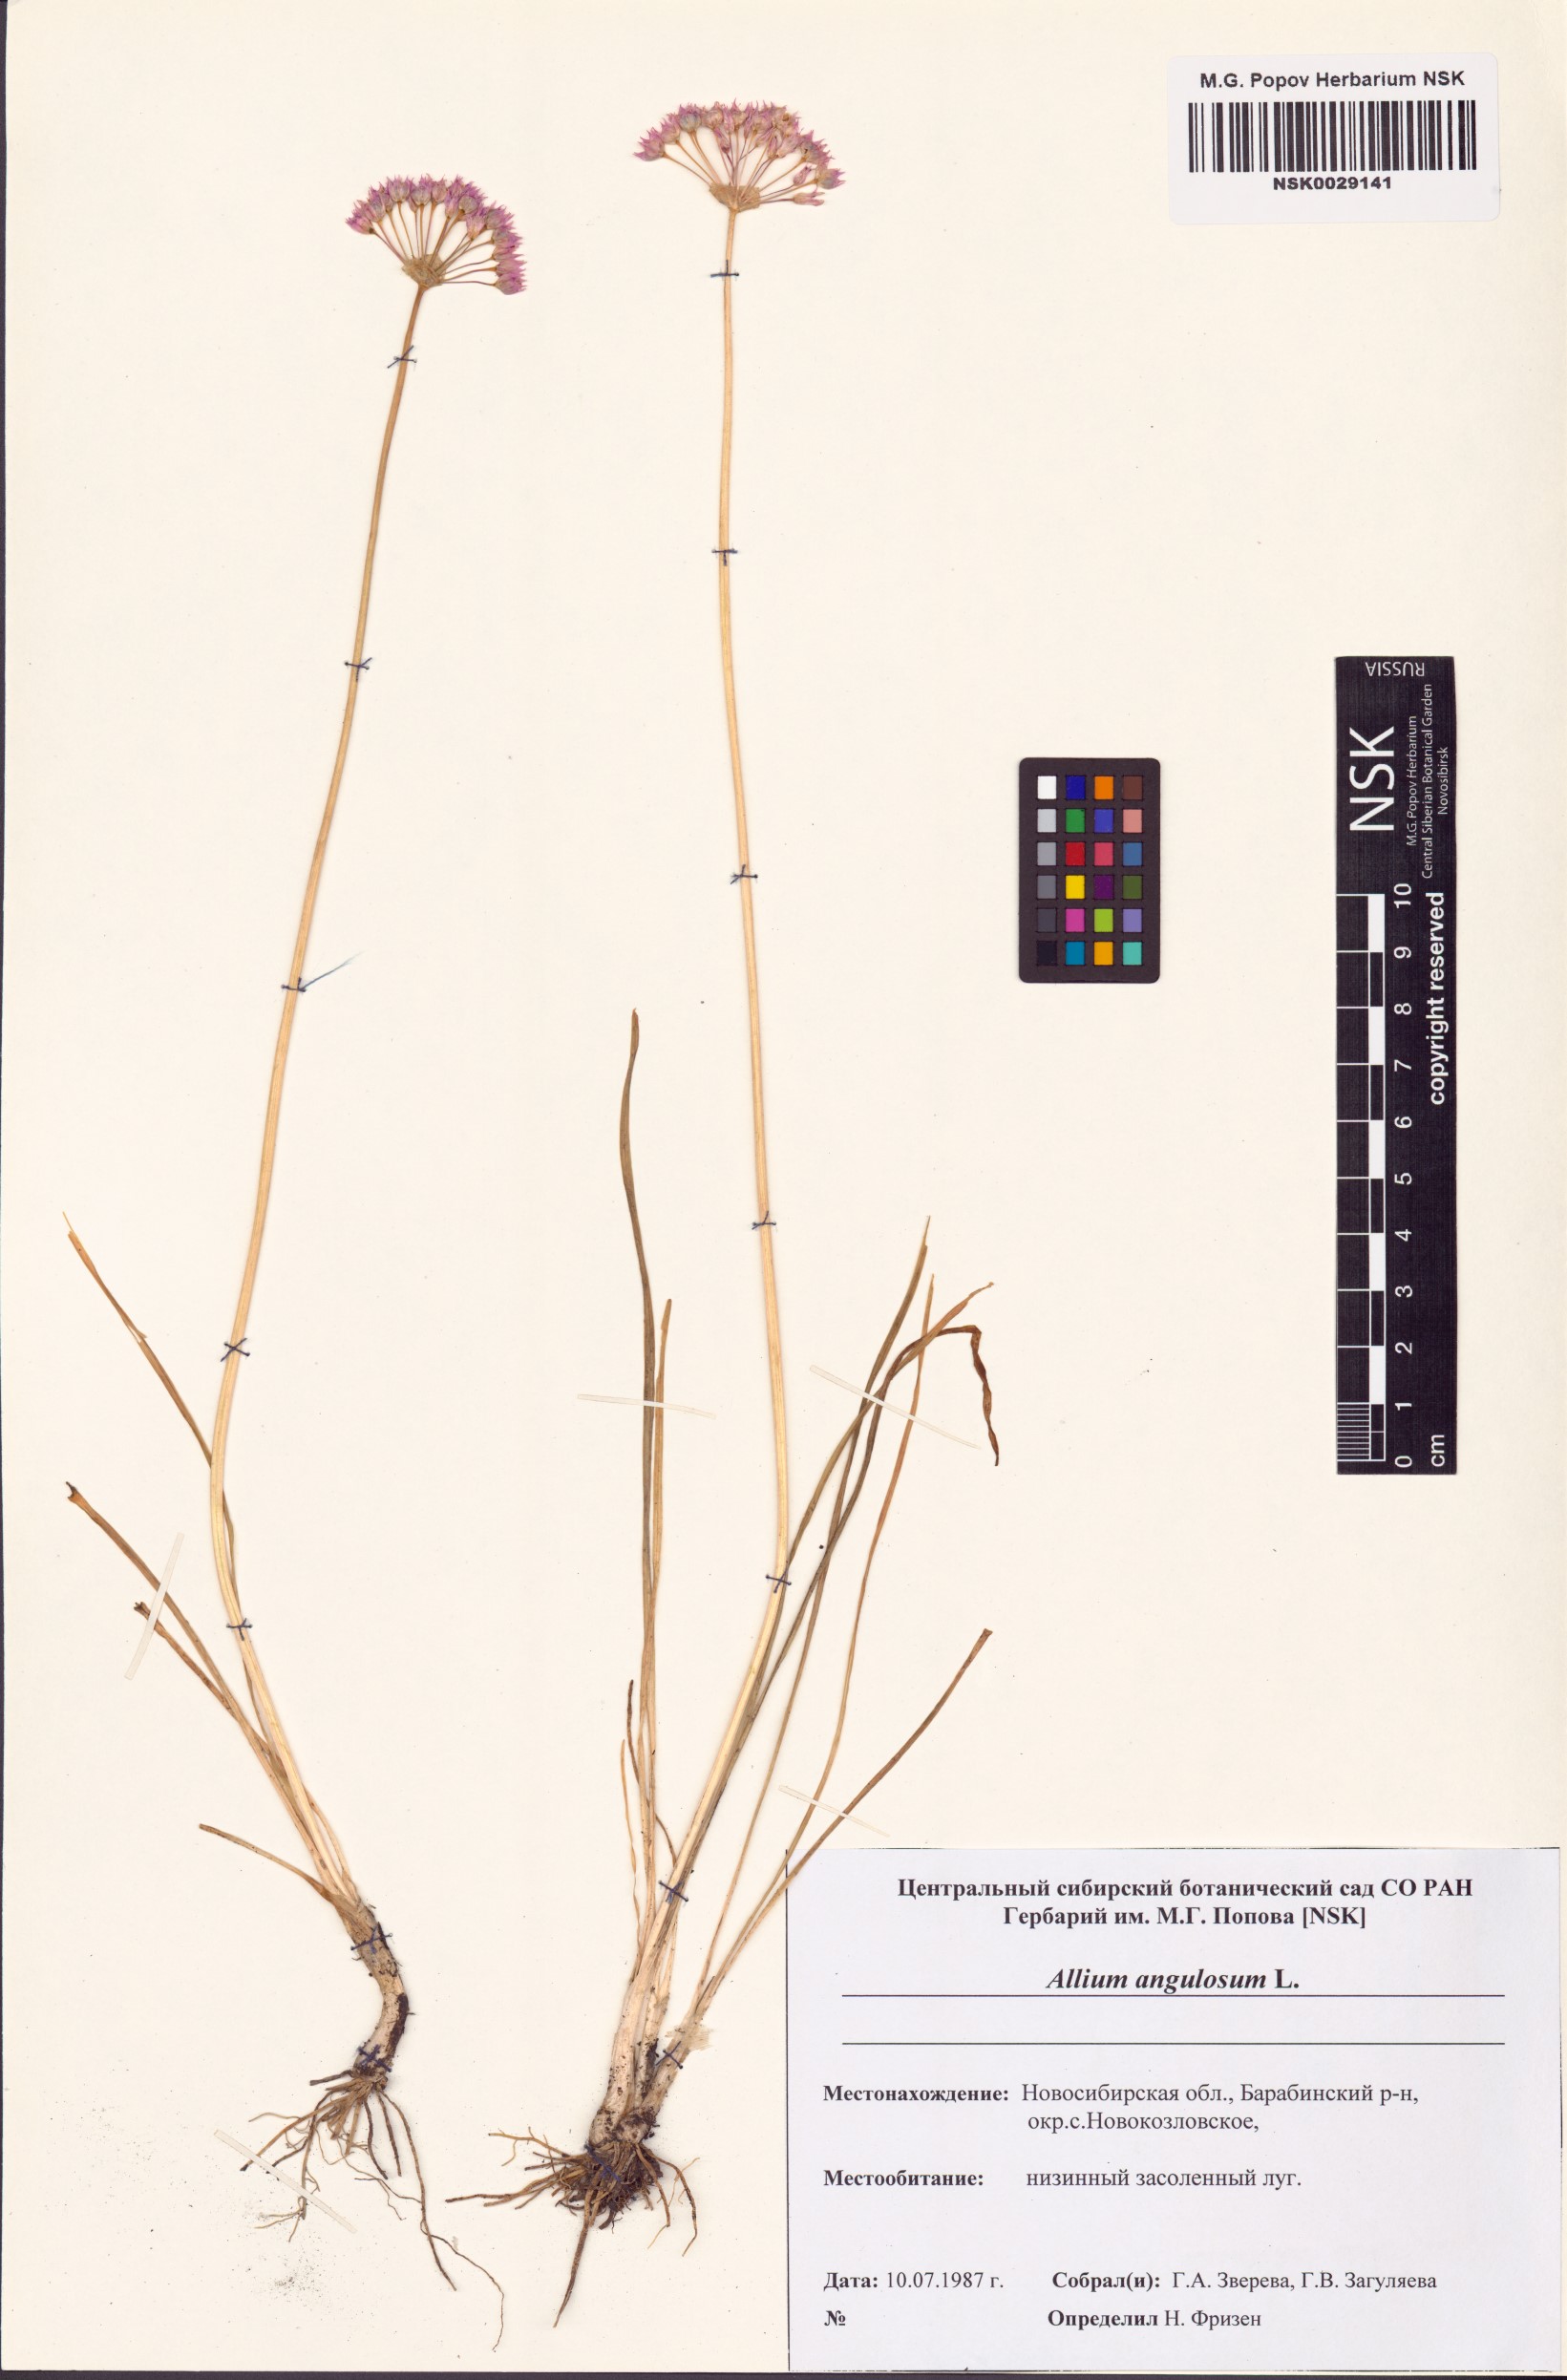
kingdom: Plantae
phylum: Tracheophyta
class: Liliopsida
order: Asparagales
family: Amaryllidaceae
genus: Allium
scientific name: Allium angulosum
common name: Mouse garlic
